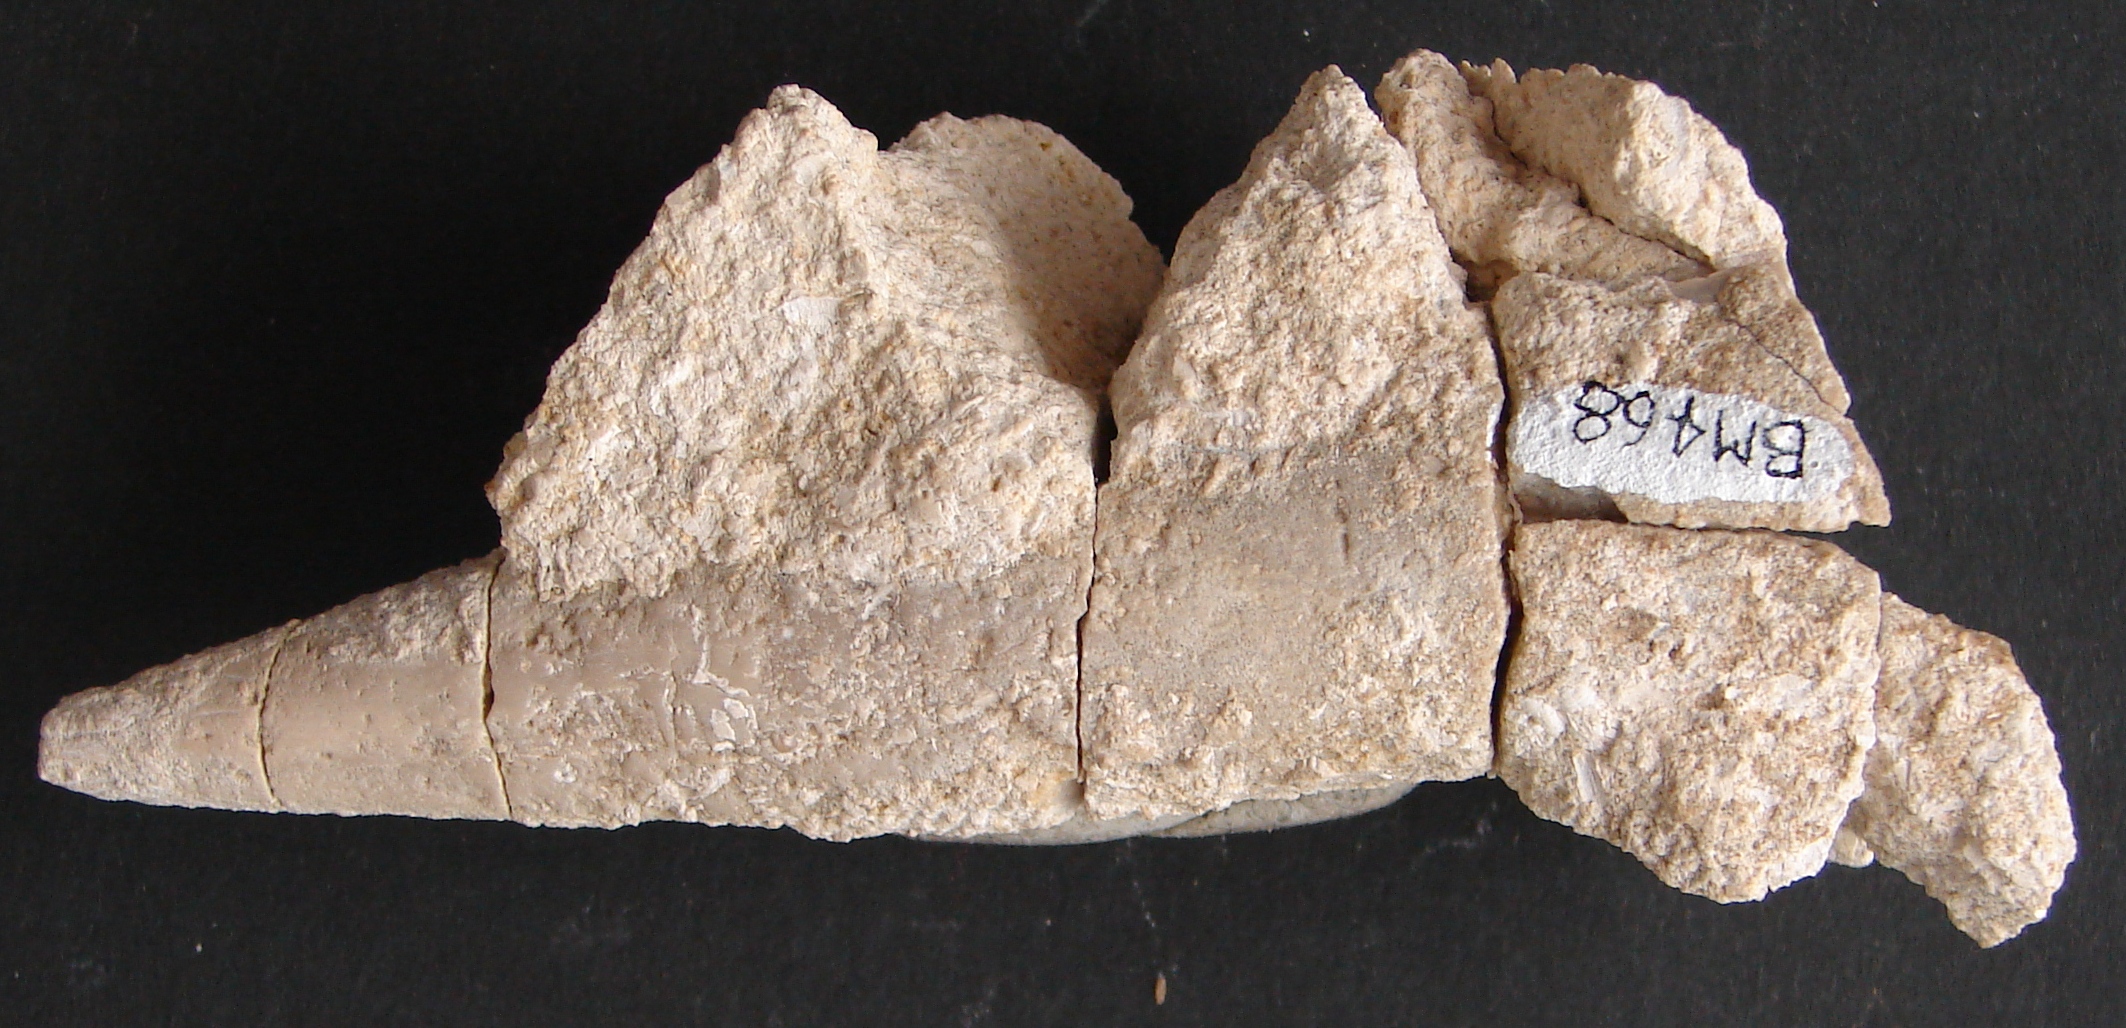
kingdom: Animalia
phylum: Mollusca
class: Cephalopoda
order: Belemnitida
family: Megateuthididae
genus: Megateuthis
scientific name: Megateuthis
